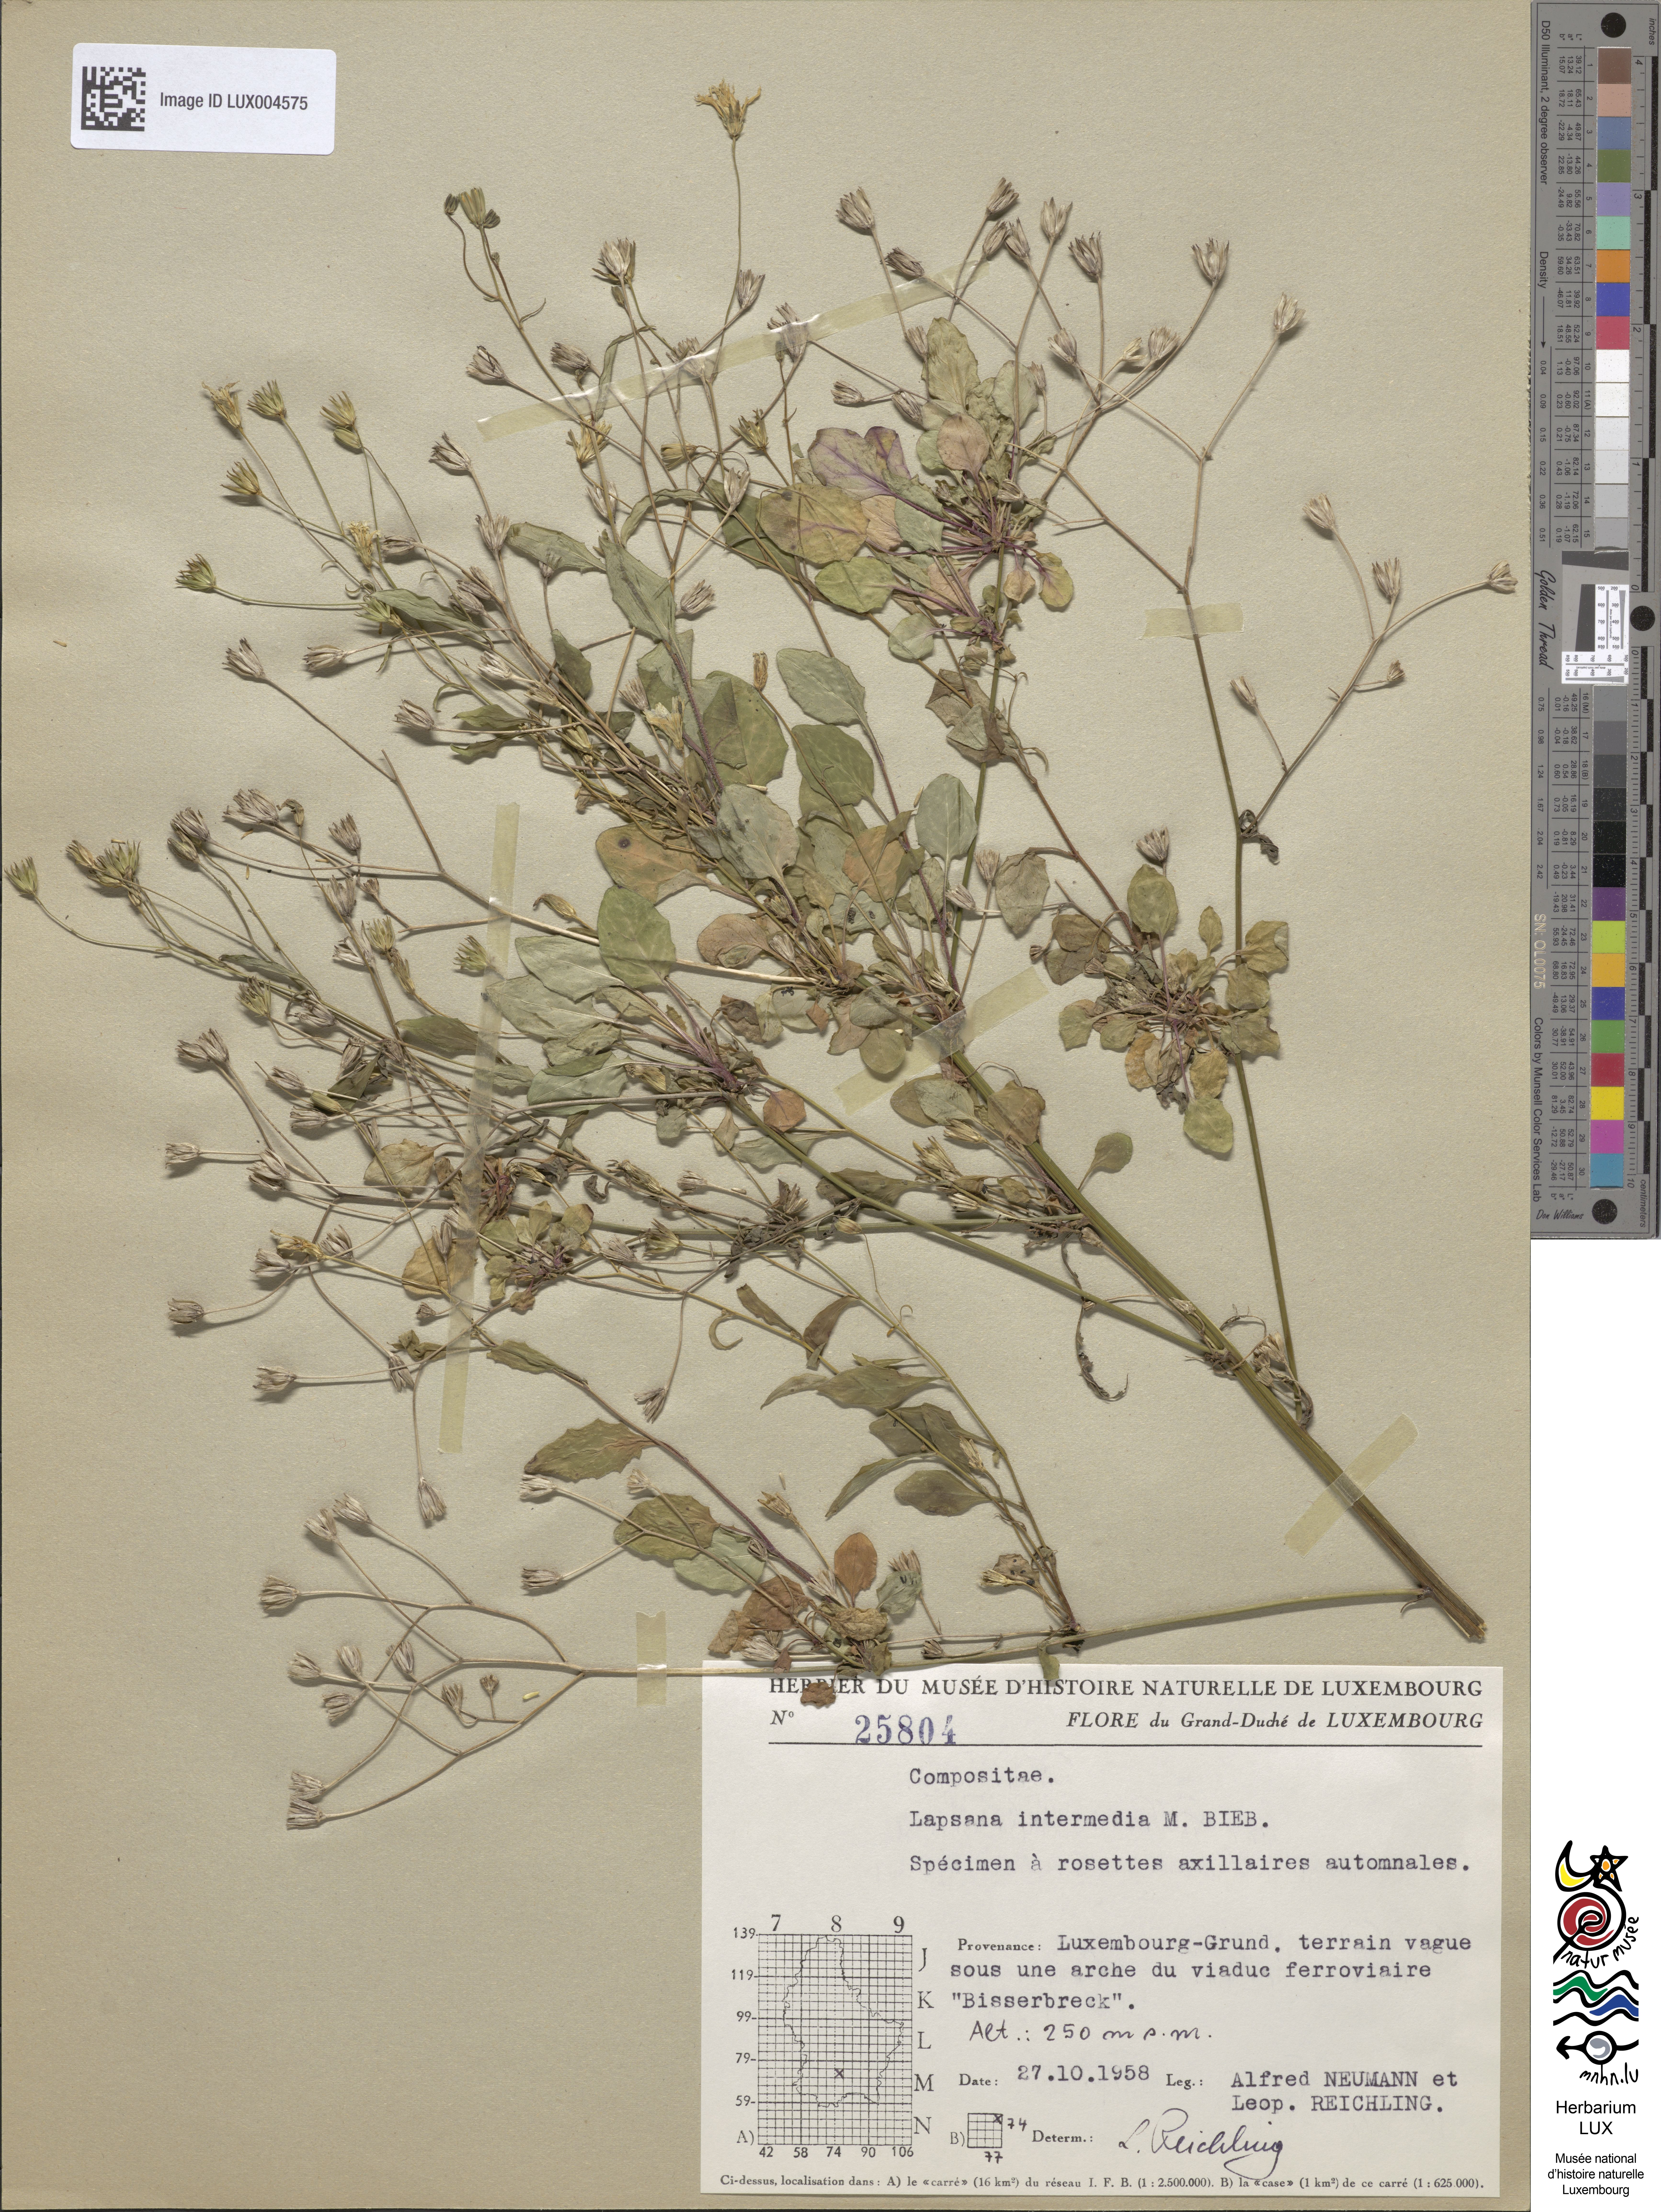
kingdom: Plantae
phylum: Tracheophyta
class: Magnoliopsida
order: Asterales
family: Asteraceae
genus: Lapsana
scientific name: Lapsana communis
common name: Nipplewort
